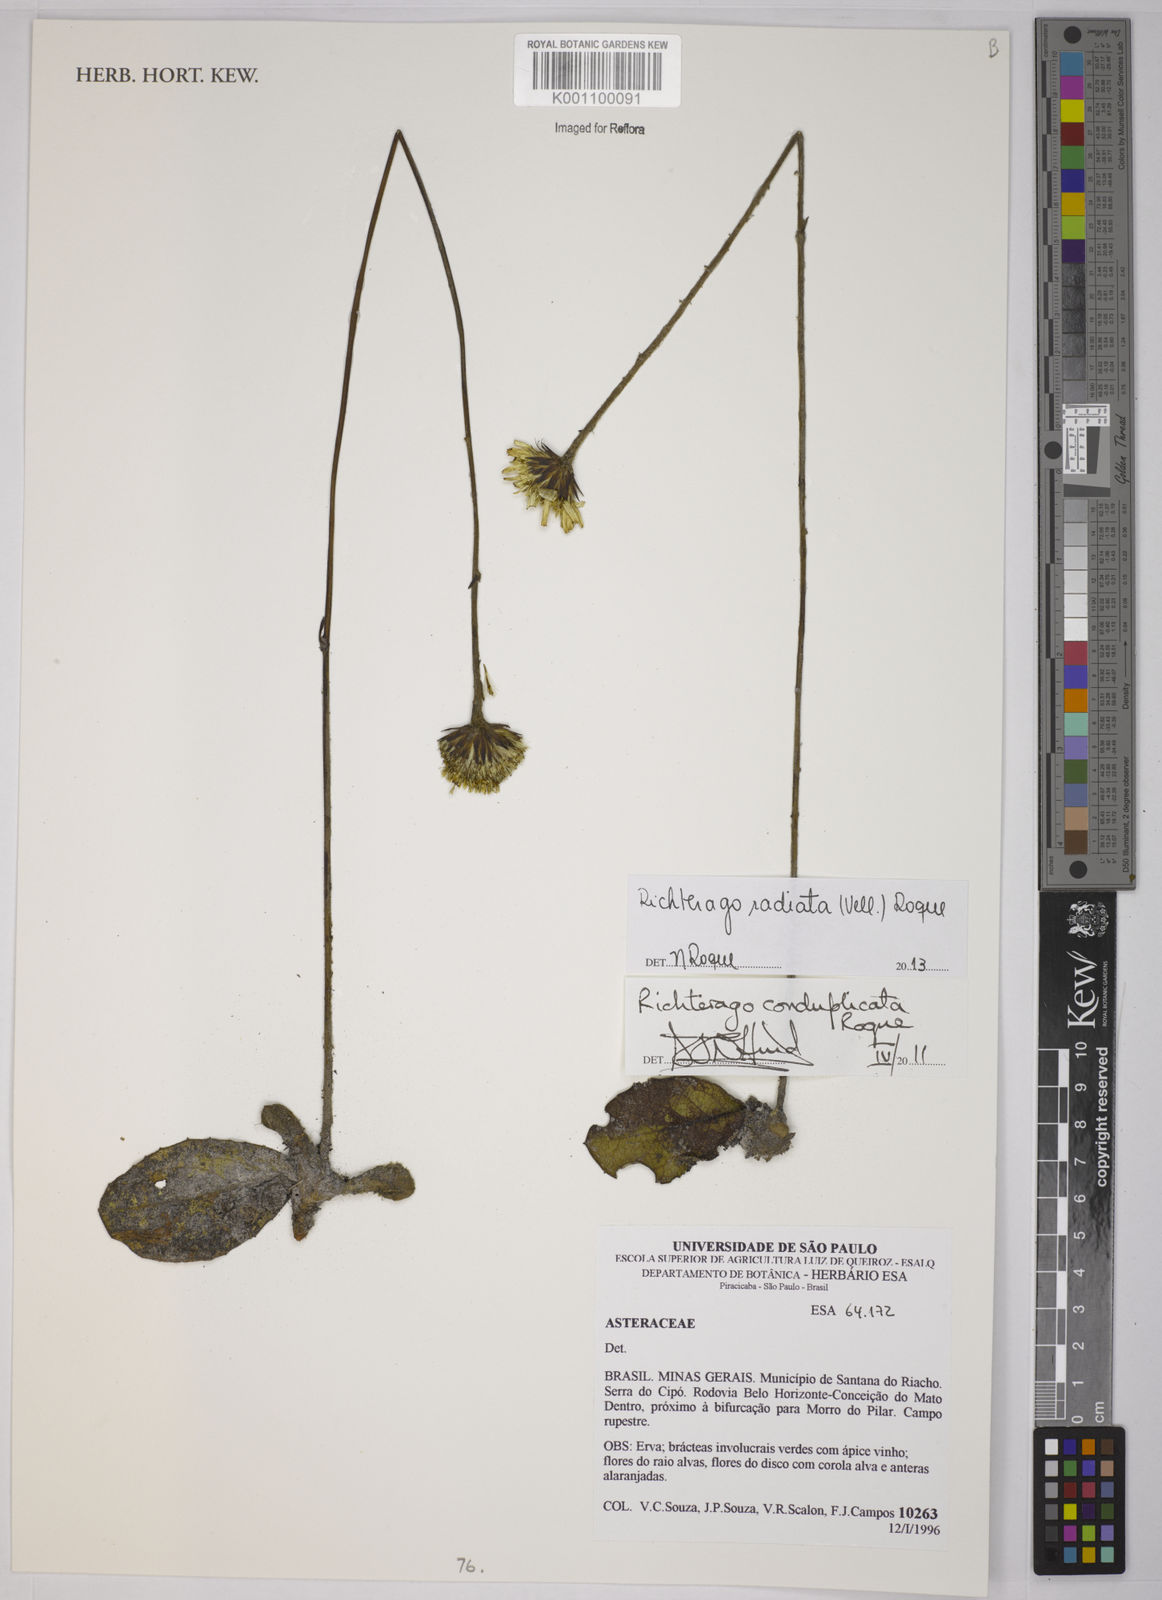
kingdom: Plantae
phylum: Tracheophyta
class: Magnoliopsida
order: Asterales
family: Asteraceae
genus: Richterago
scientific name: Richterago radiata
